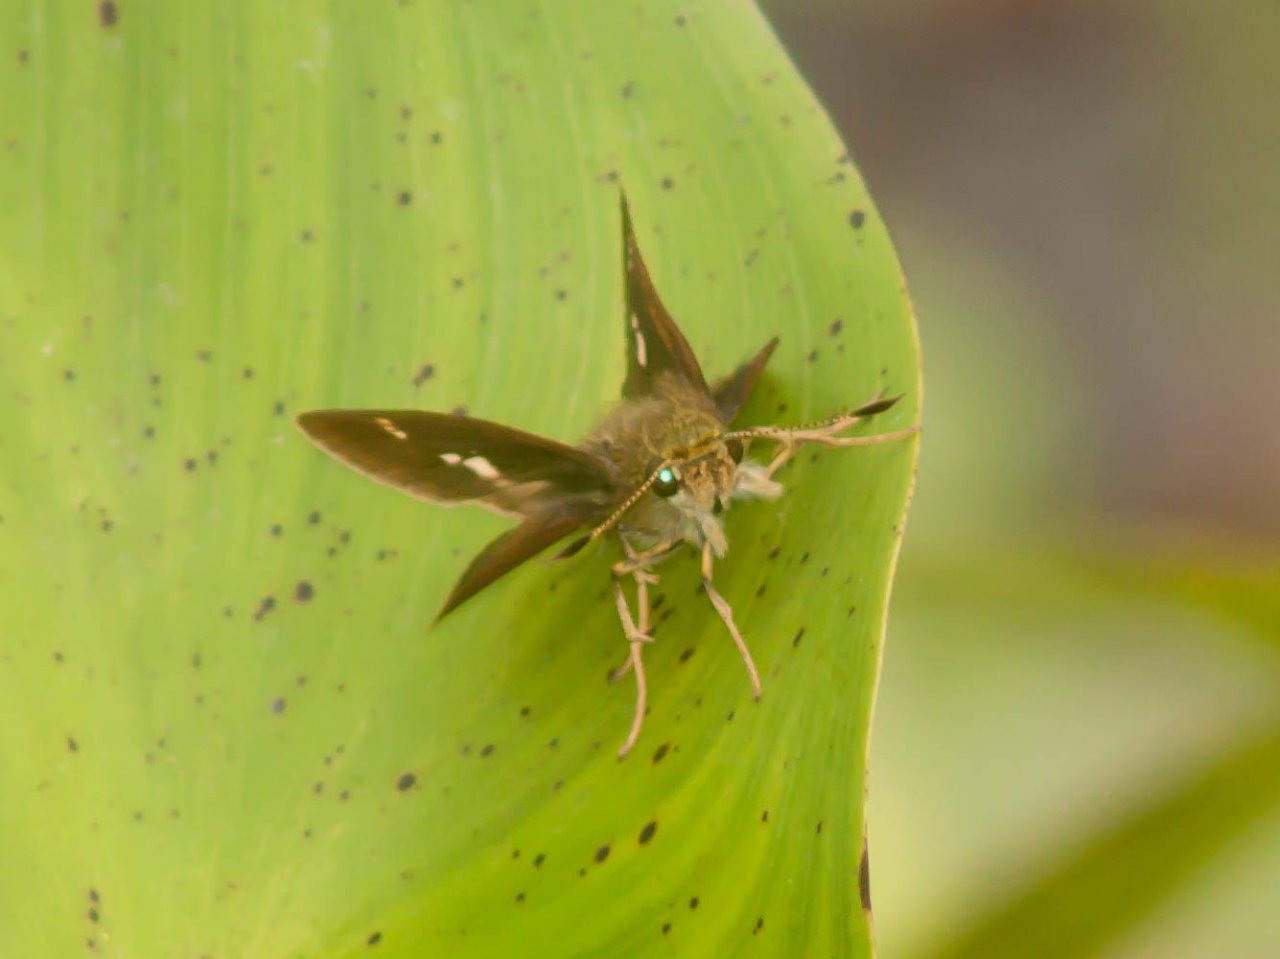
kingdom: Animalia
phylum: Arthropoda
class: Insecta
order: Lepidoptera
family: Hesperiidae
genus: Vernia
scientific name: Vernia verna
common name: Little Glassywing
